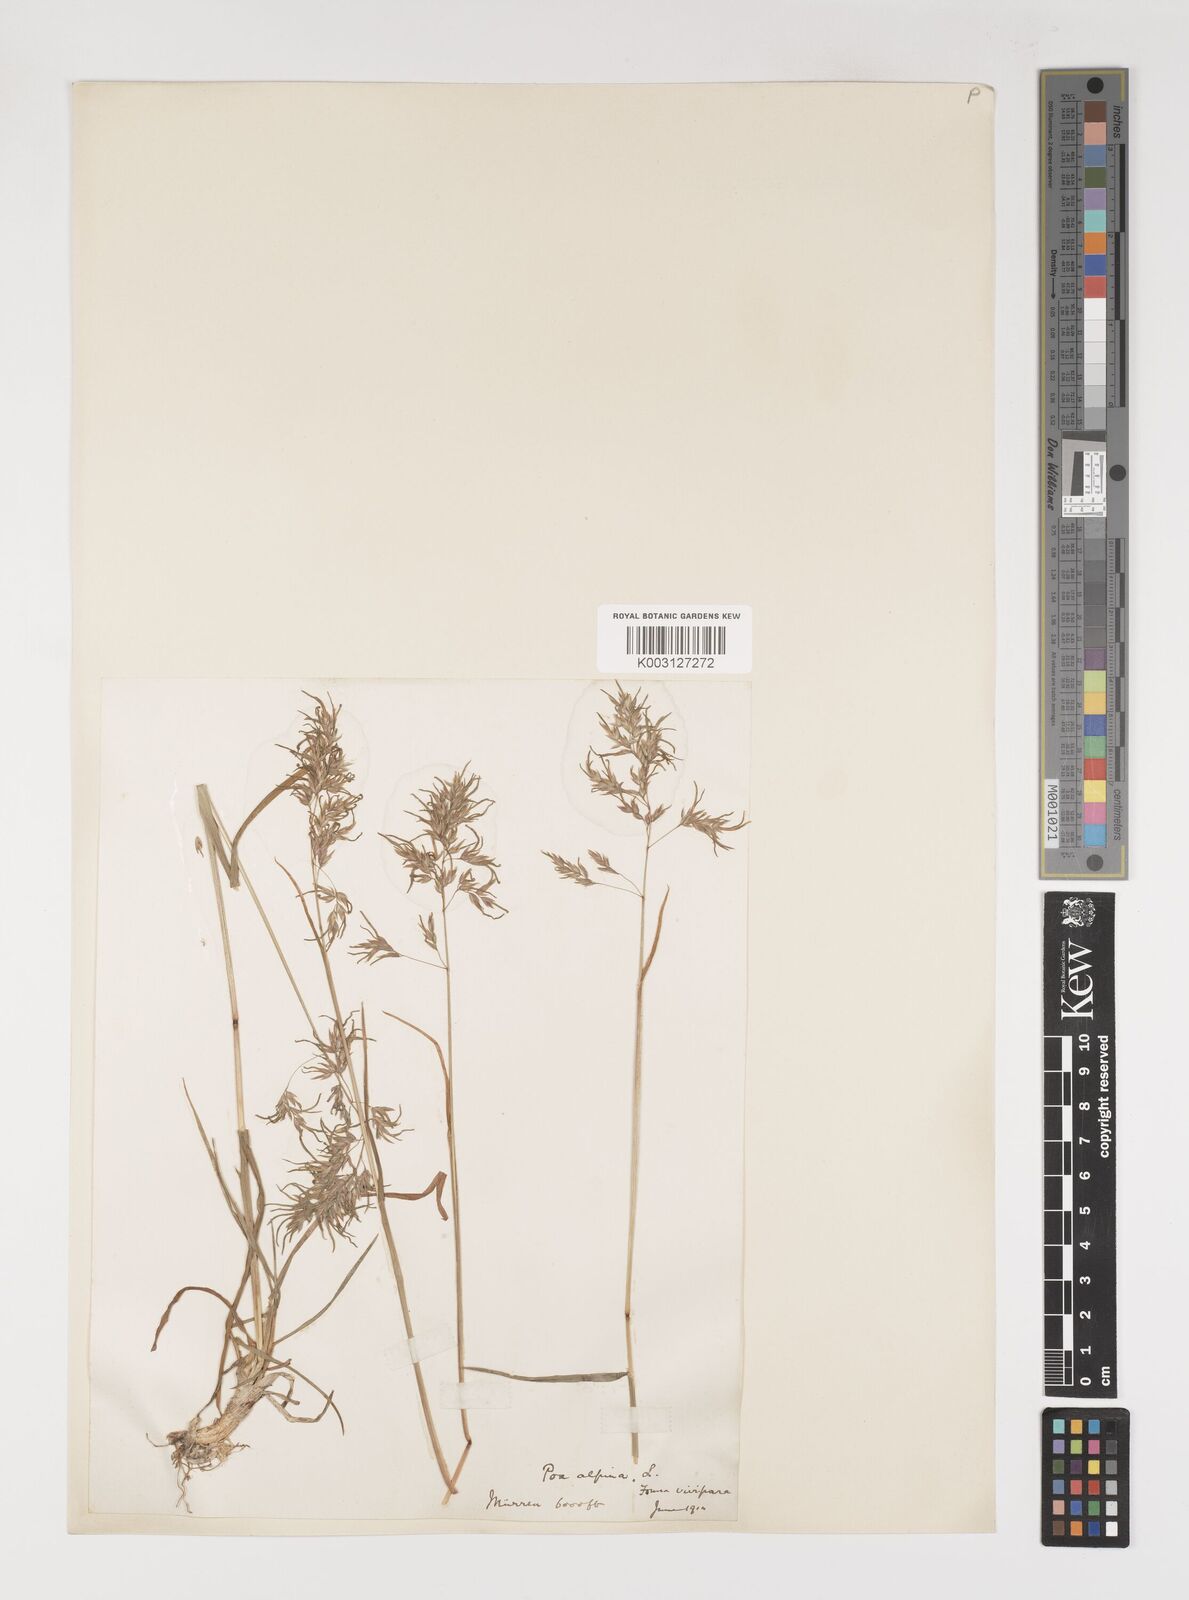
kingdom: Plantae
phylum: Tracheophyta
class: Liliopsida
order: Poales
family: Poaceae
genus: Poa
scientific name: Poa alpina
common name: Alpine bluegrass
